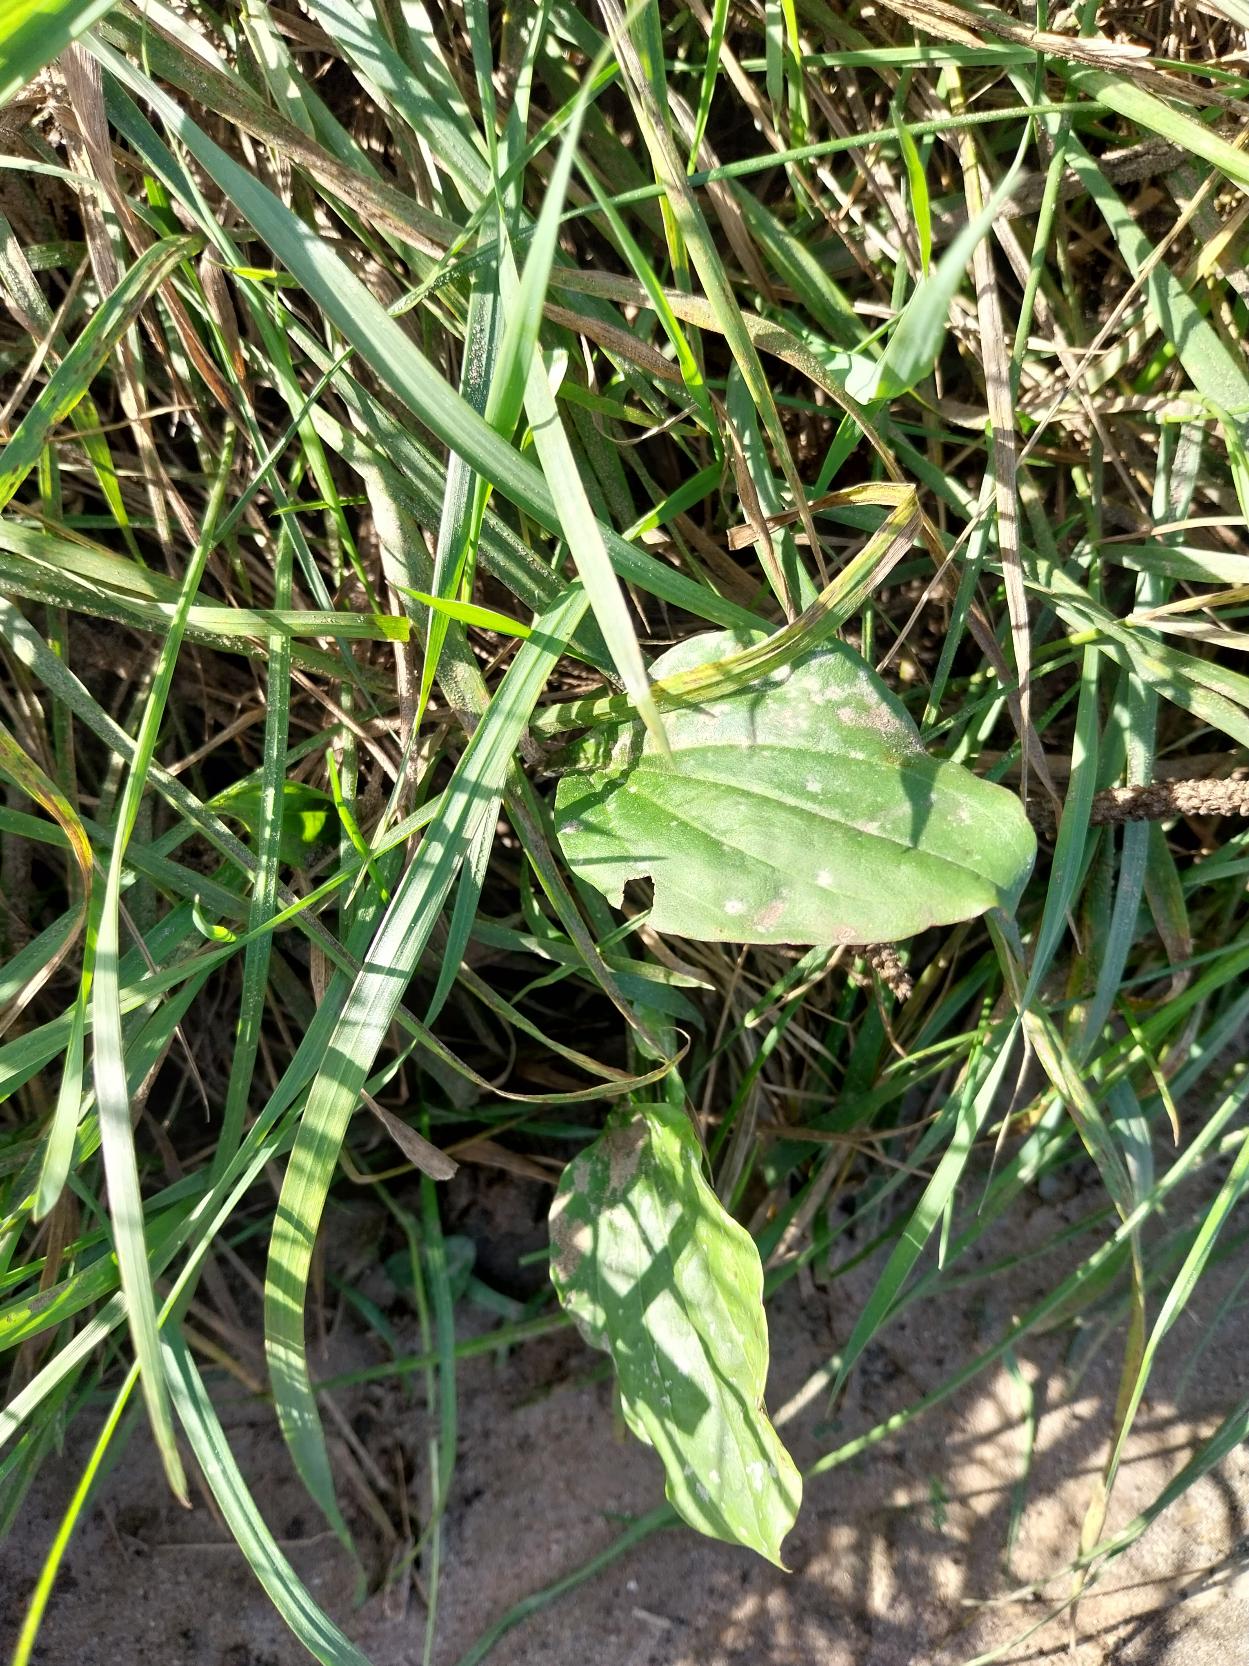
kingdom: Plantae
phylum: Tracheophyta
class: Magnoliopsida
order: Lamiales
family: Plantaginaceae
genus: Plantago
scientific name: Plantago major
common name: Glat vejbred
